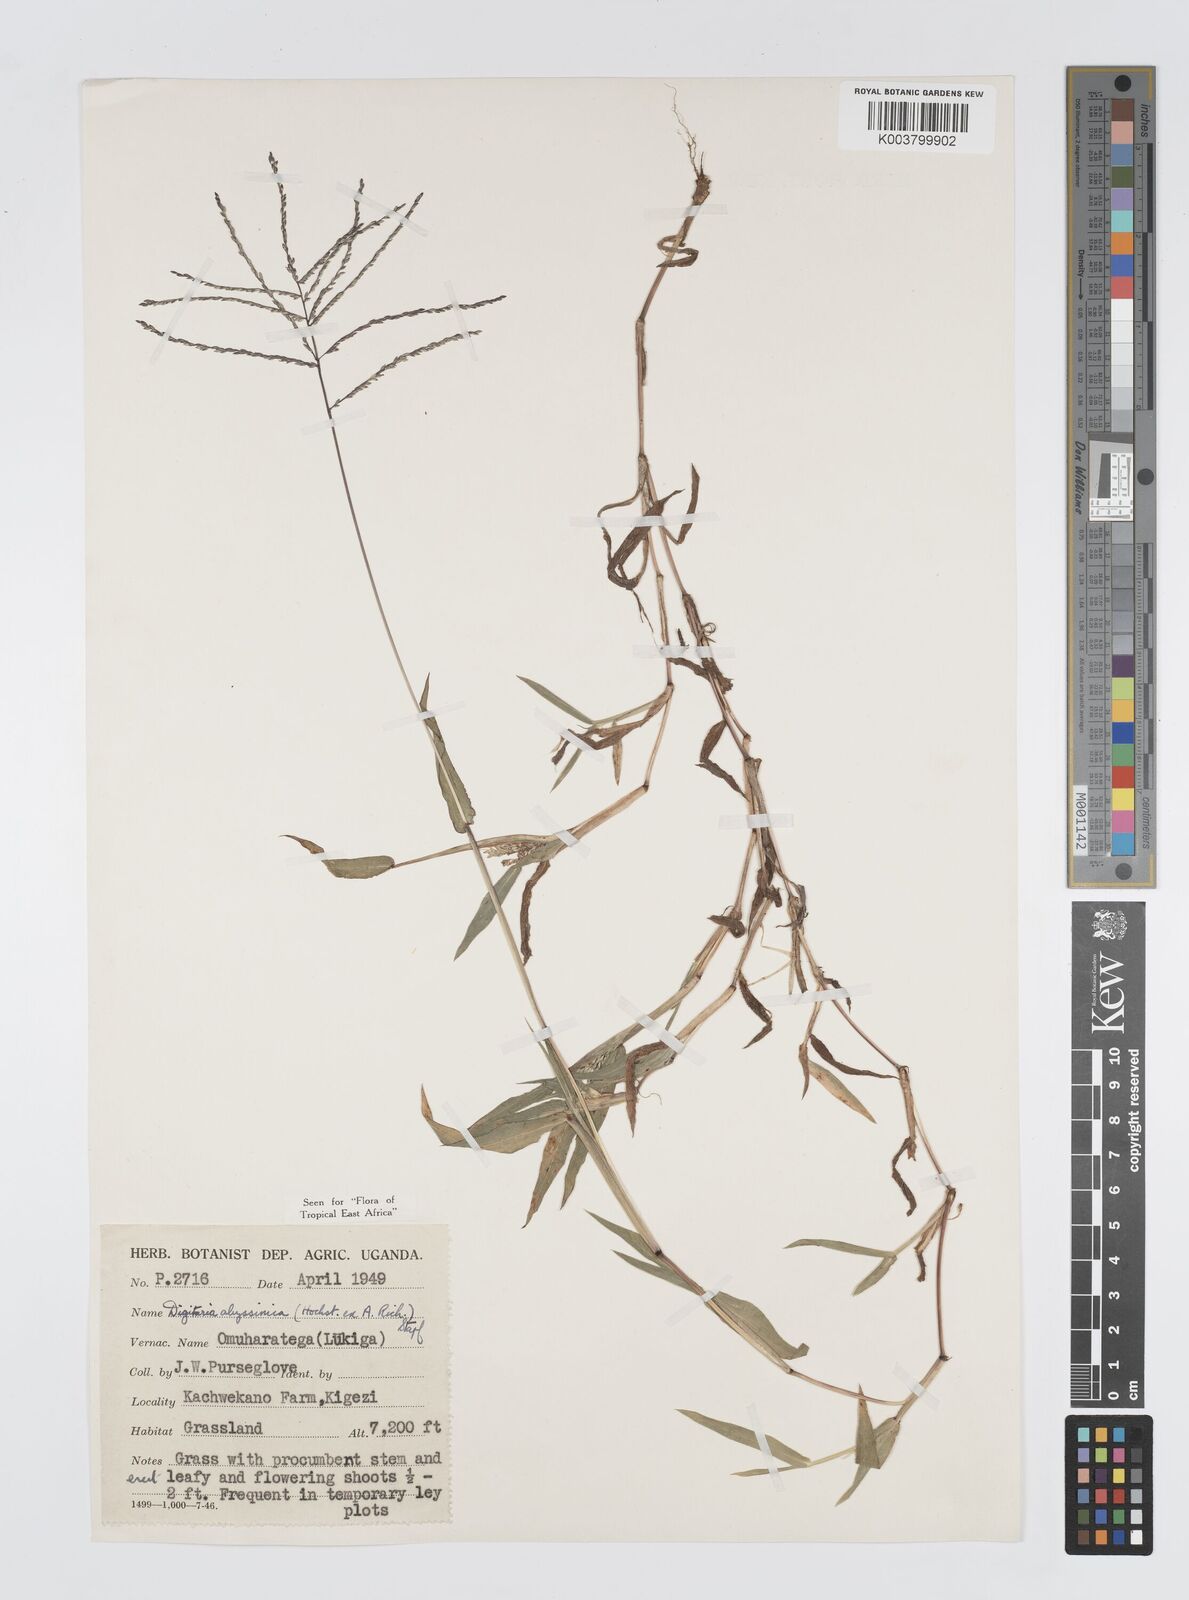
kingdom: Plantae
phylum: Tracheophyta
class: Liliopsida
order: Poales
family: Poaceae
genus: Digitaria
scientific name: Digitaria abyssinica
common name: African couchgrass
